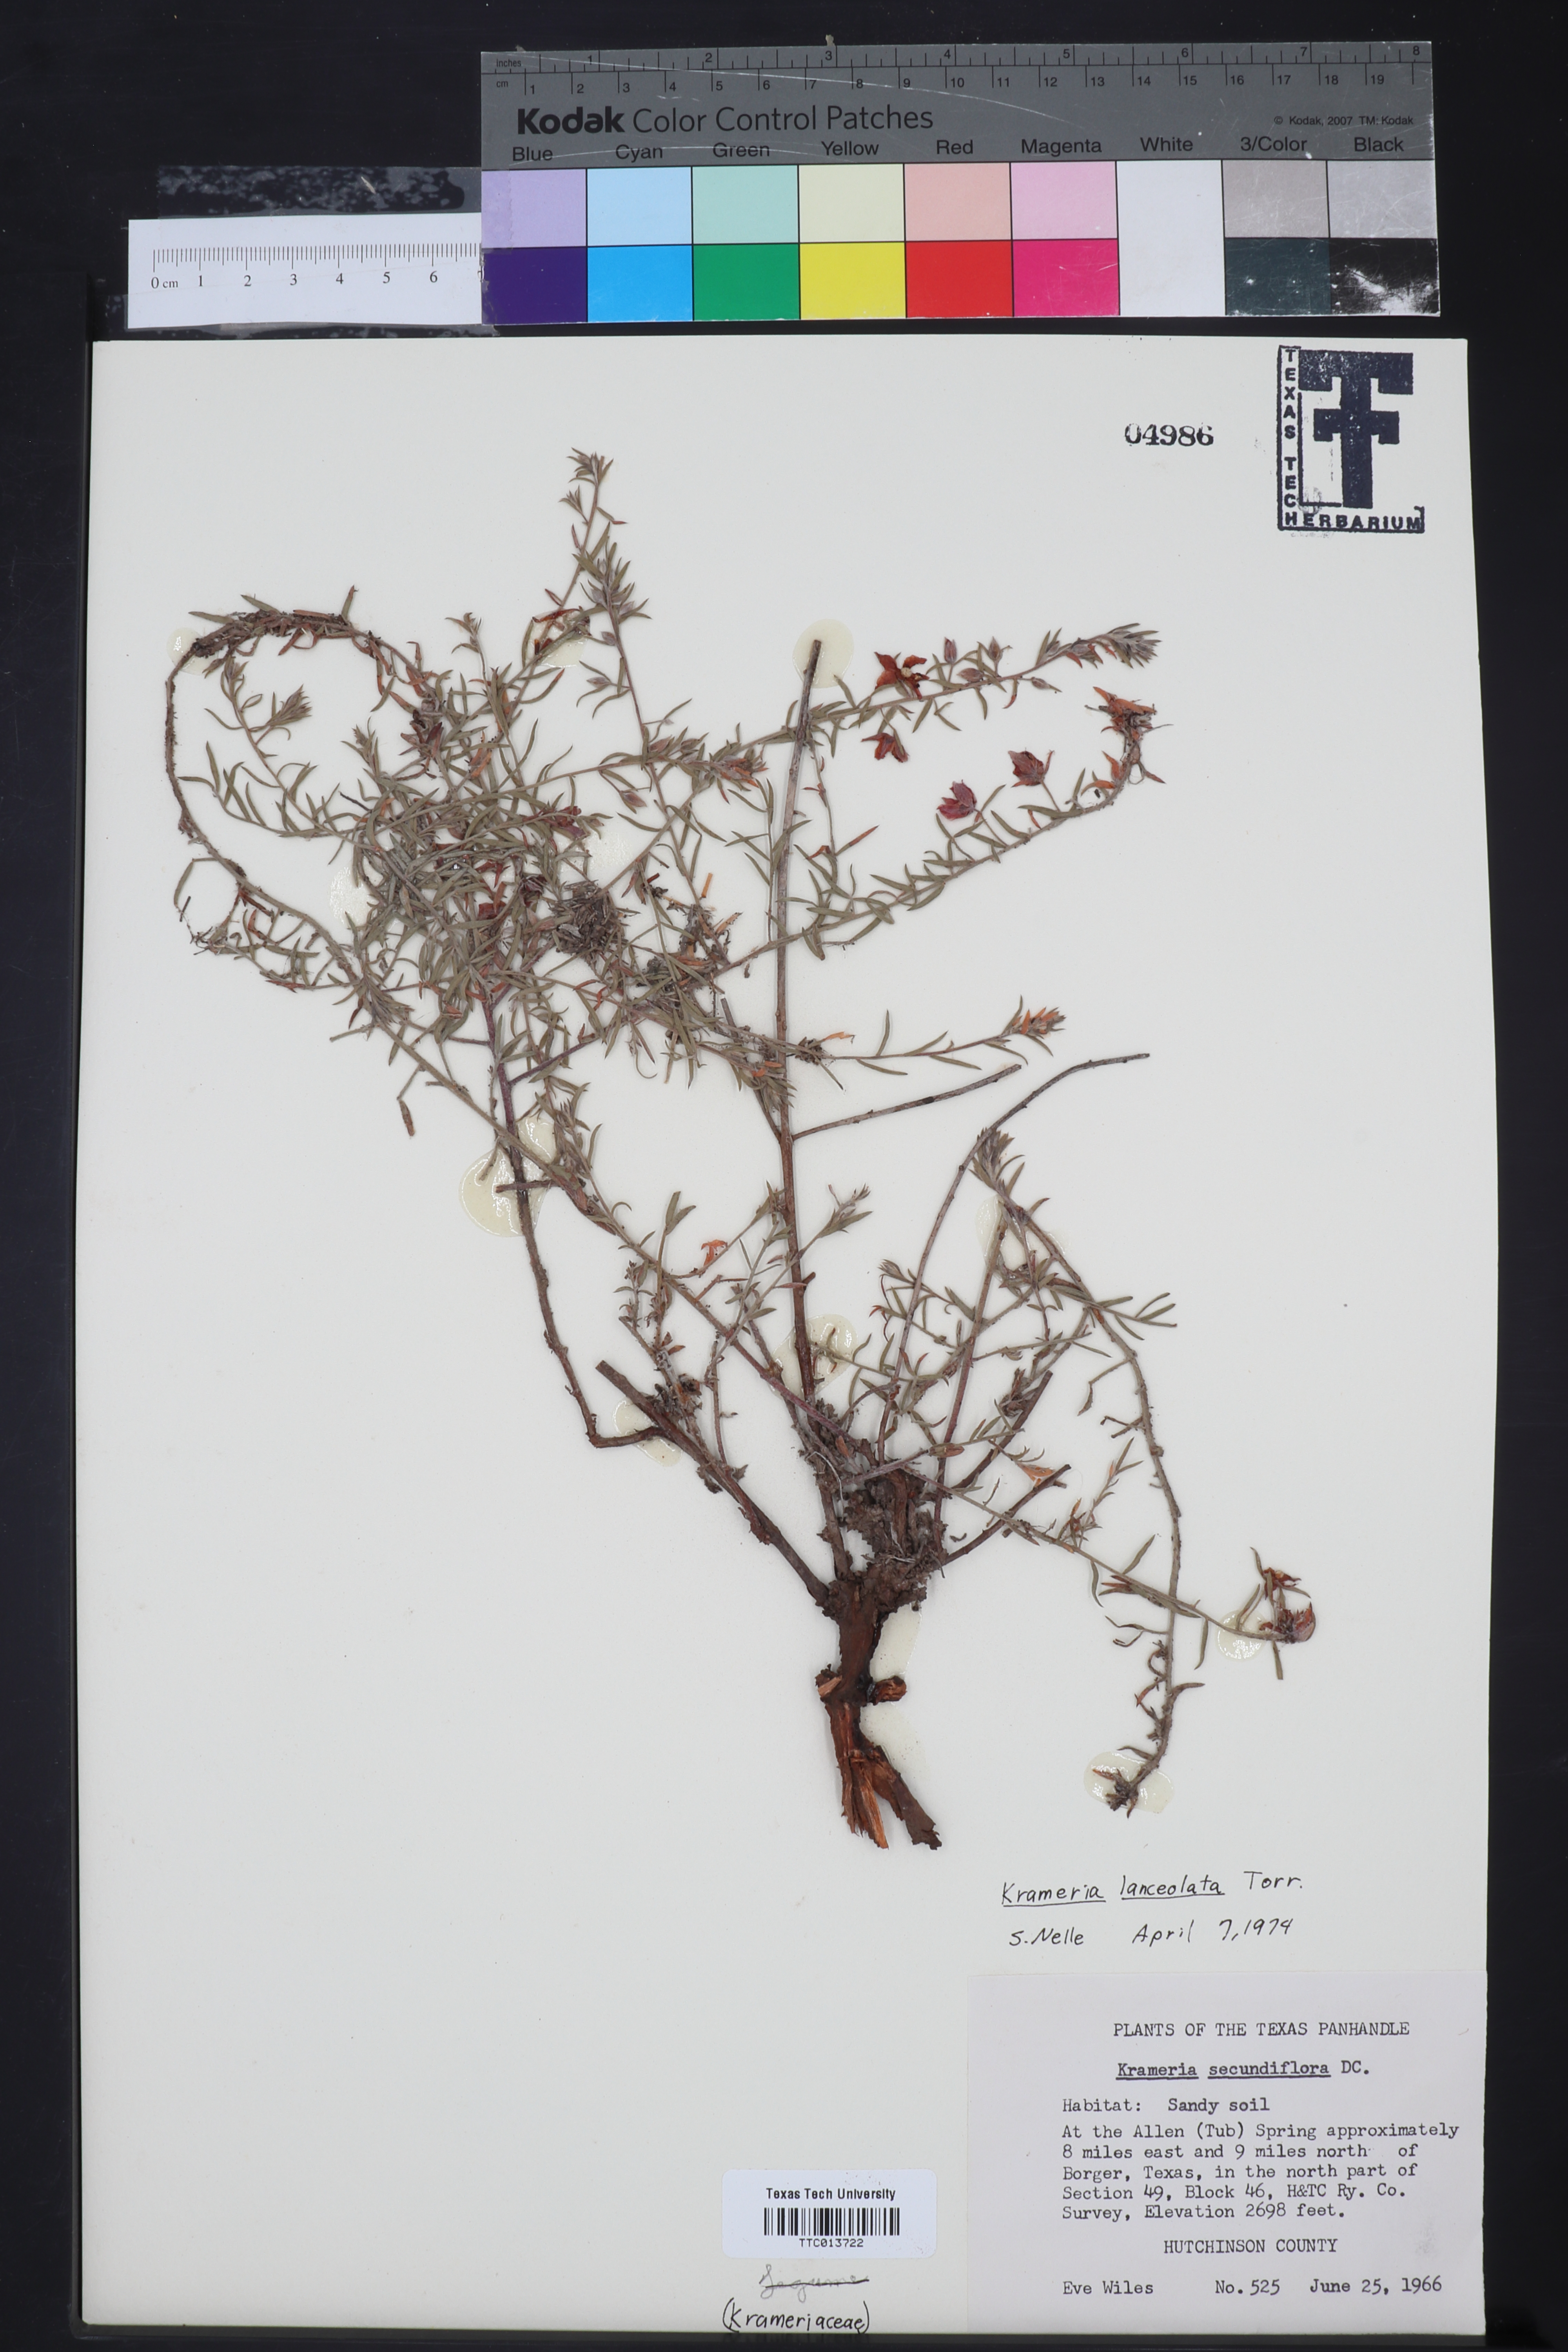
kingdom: Plantae
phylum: Tracheophyta
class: Magnoliopsida
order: Zygophyllales
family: Krameriaceae
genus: Krameria
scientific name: Krameria lanceolata
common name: Ratany
